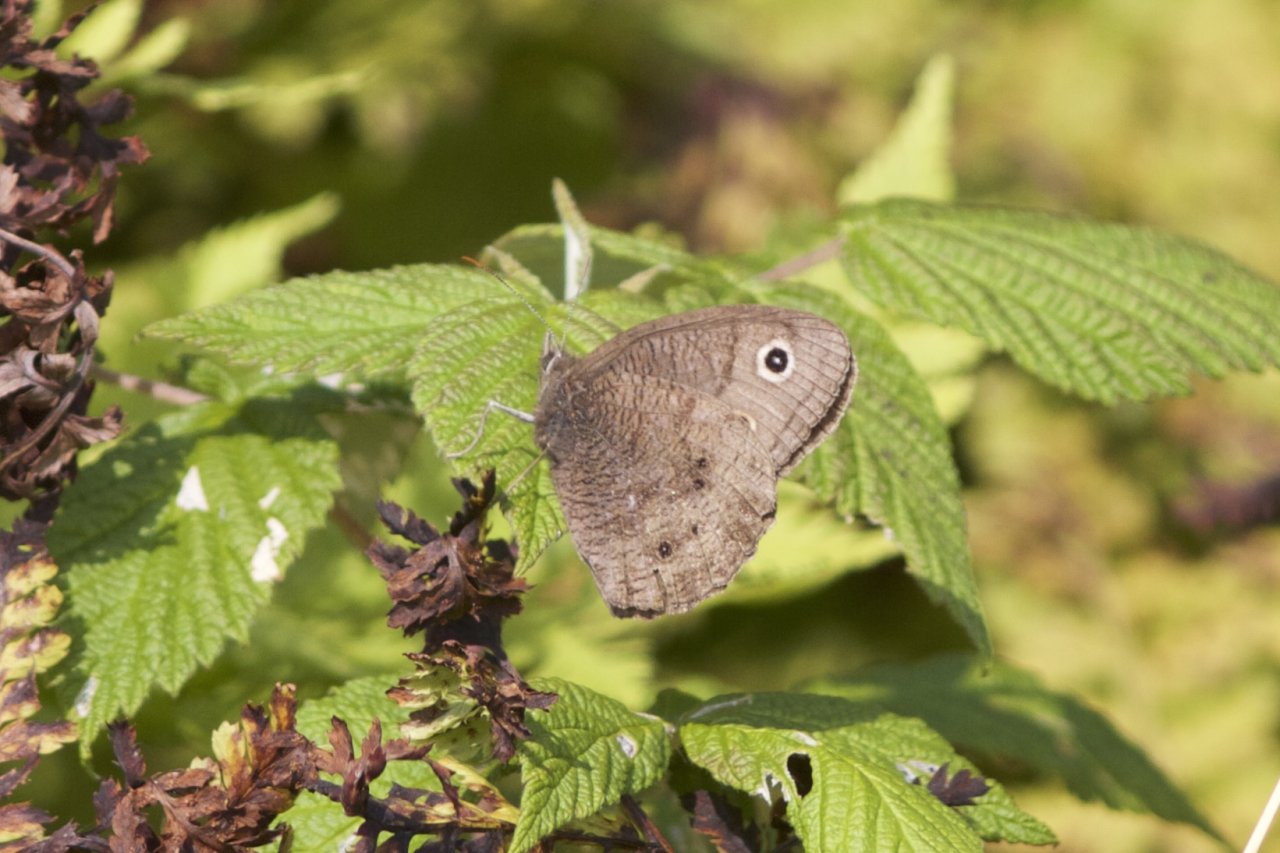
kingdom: Animalia
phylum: Arthropoda
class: Insecta
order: Lepidoptera
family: Nymphalidae
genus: Cercyonis
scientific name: Cercyonis pegala
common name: Common Wood-Nymph
